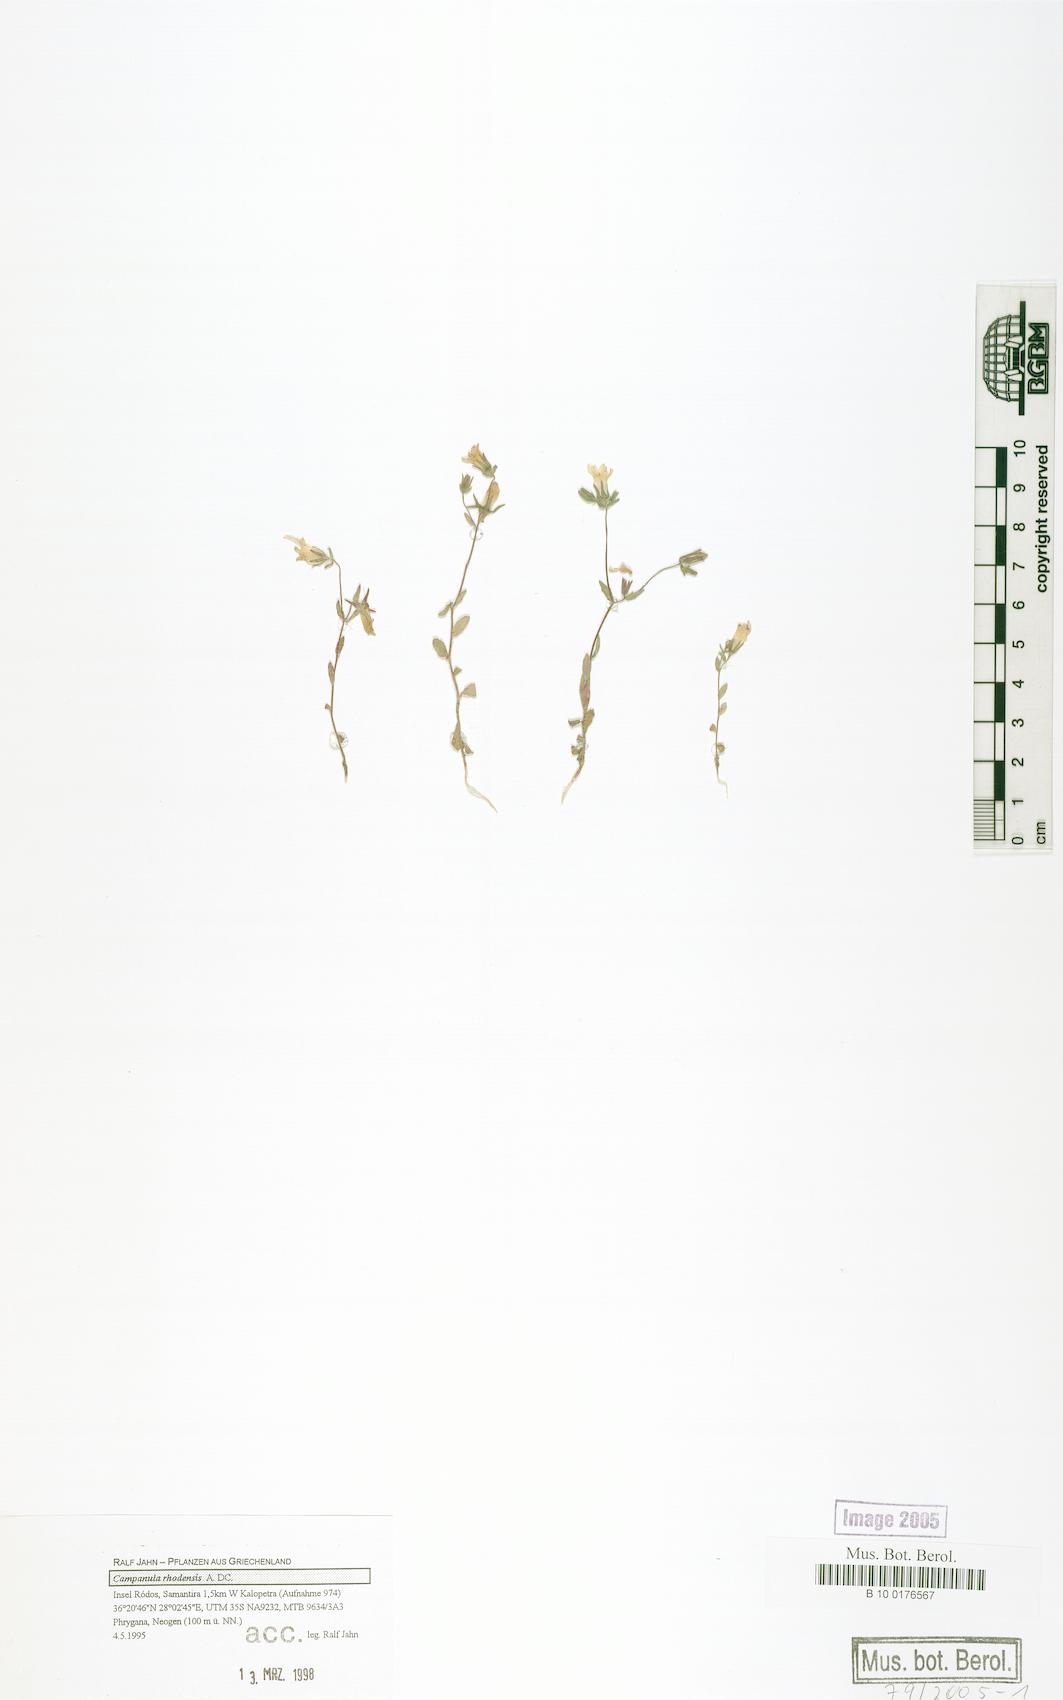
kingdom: Plantae
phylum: Tracheophyta
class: Magnoliopsida
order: Asterales
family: Campanulaceae
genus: Campanula
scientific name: Campanula rhodensis
